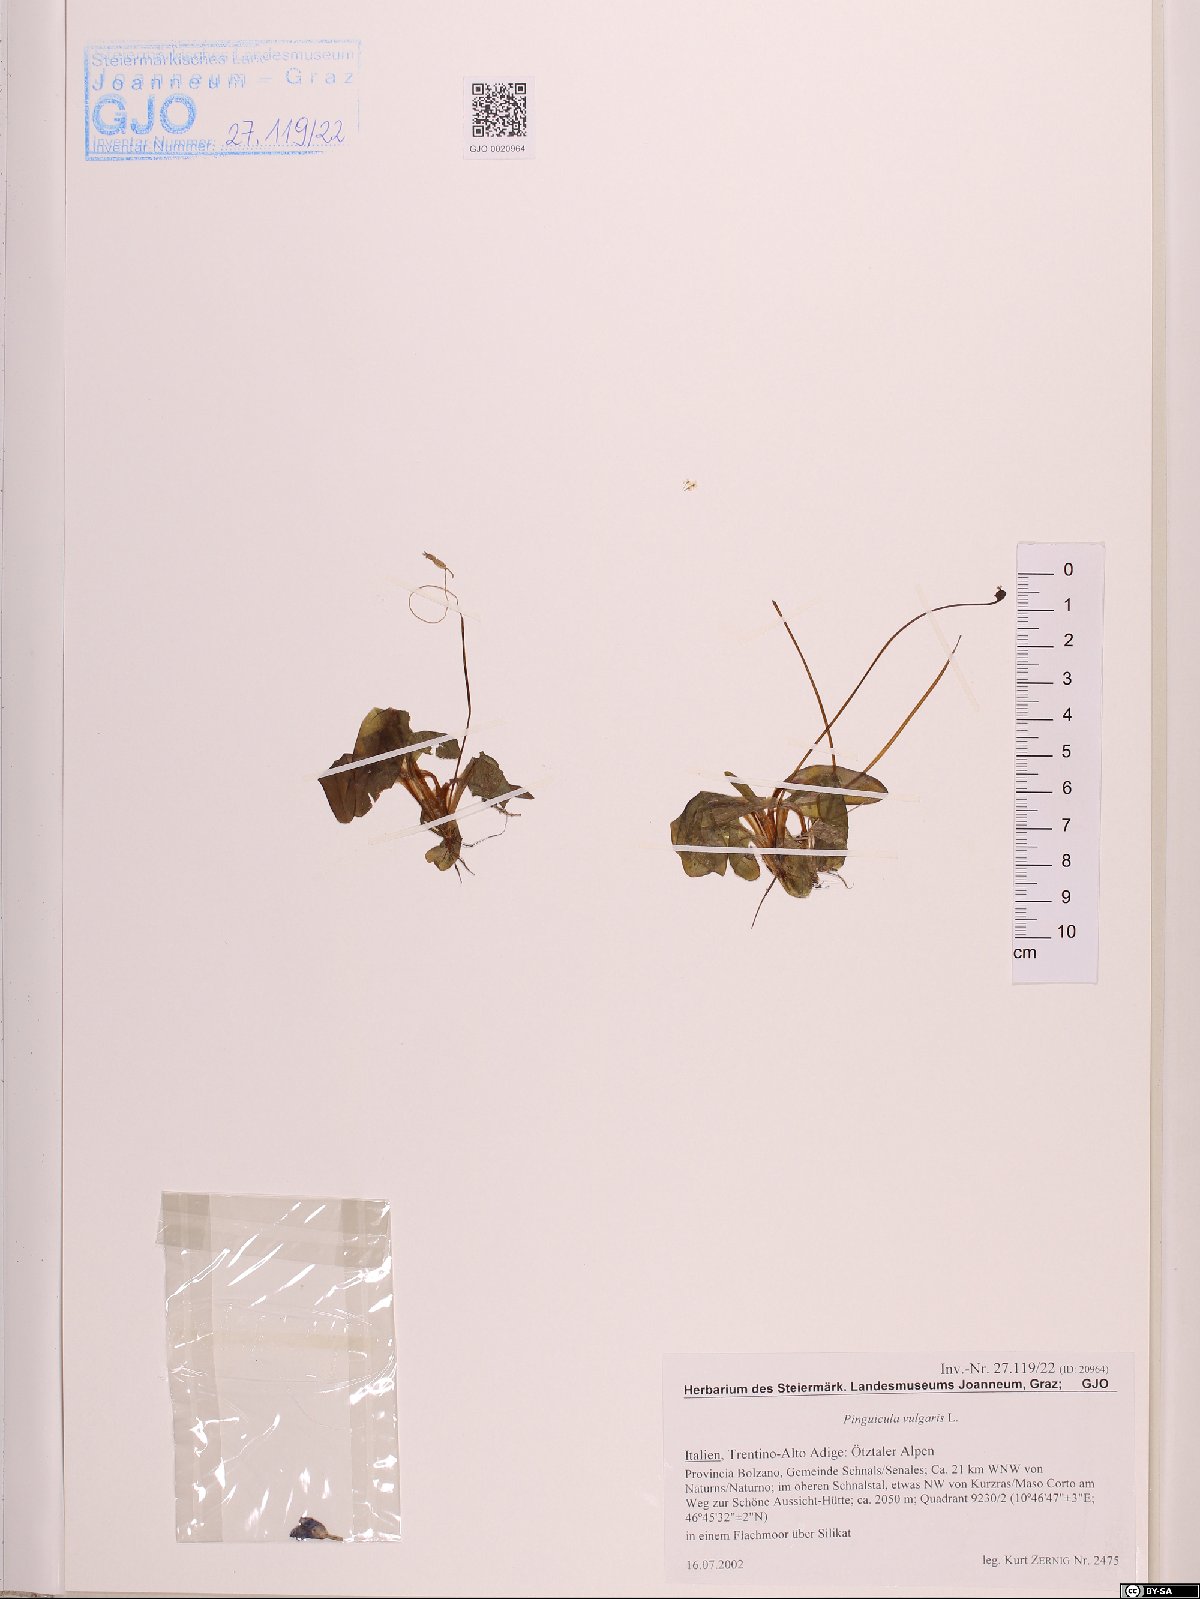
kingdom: Plantae
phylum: Tracheophyta
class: Magnoliopsida
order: Lamiales
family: Lentibulariaceae
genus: Pinguicula
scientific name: Pinguicula vulgaris
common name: Common butterwort
